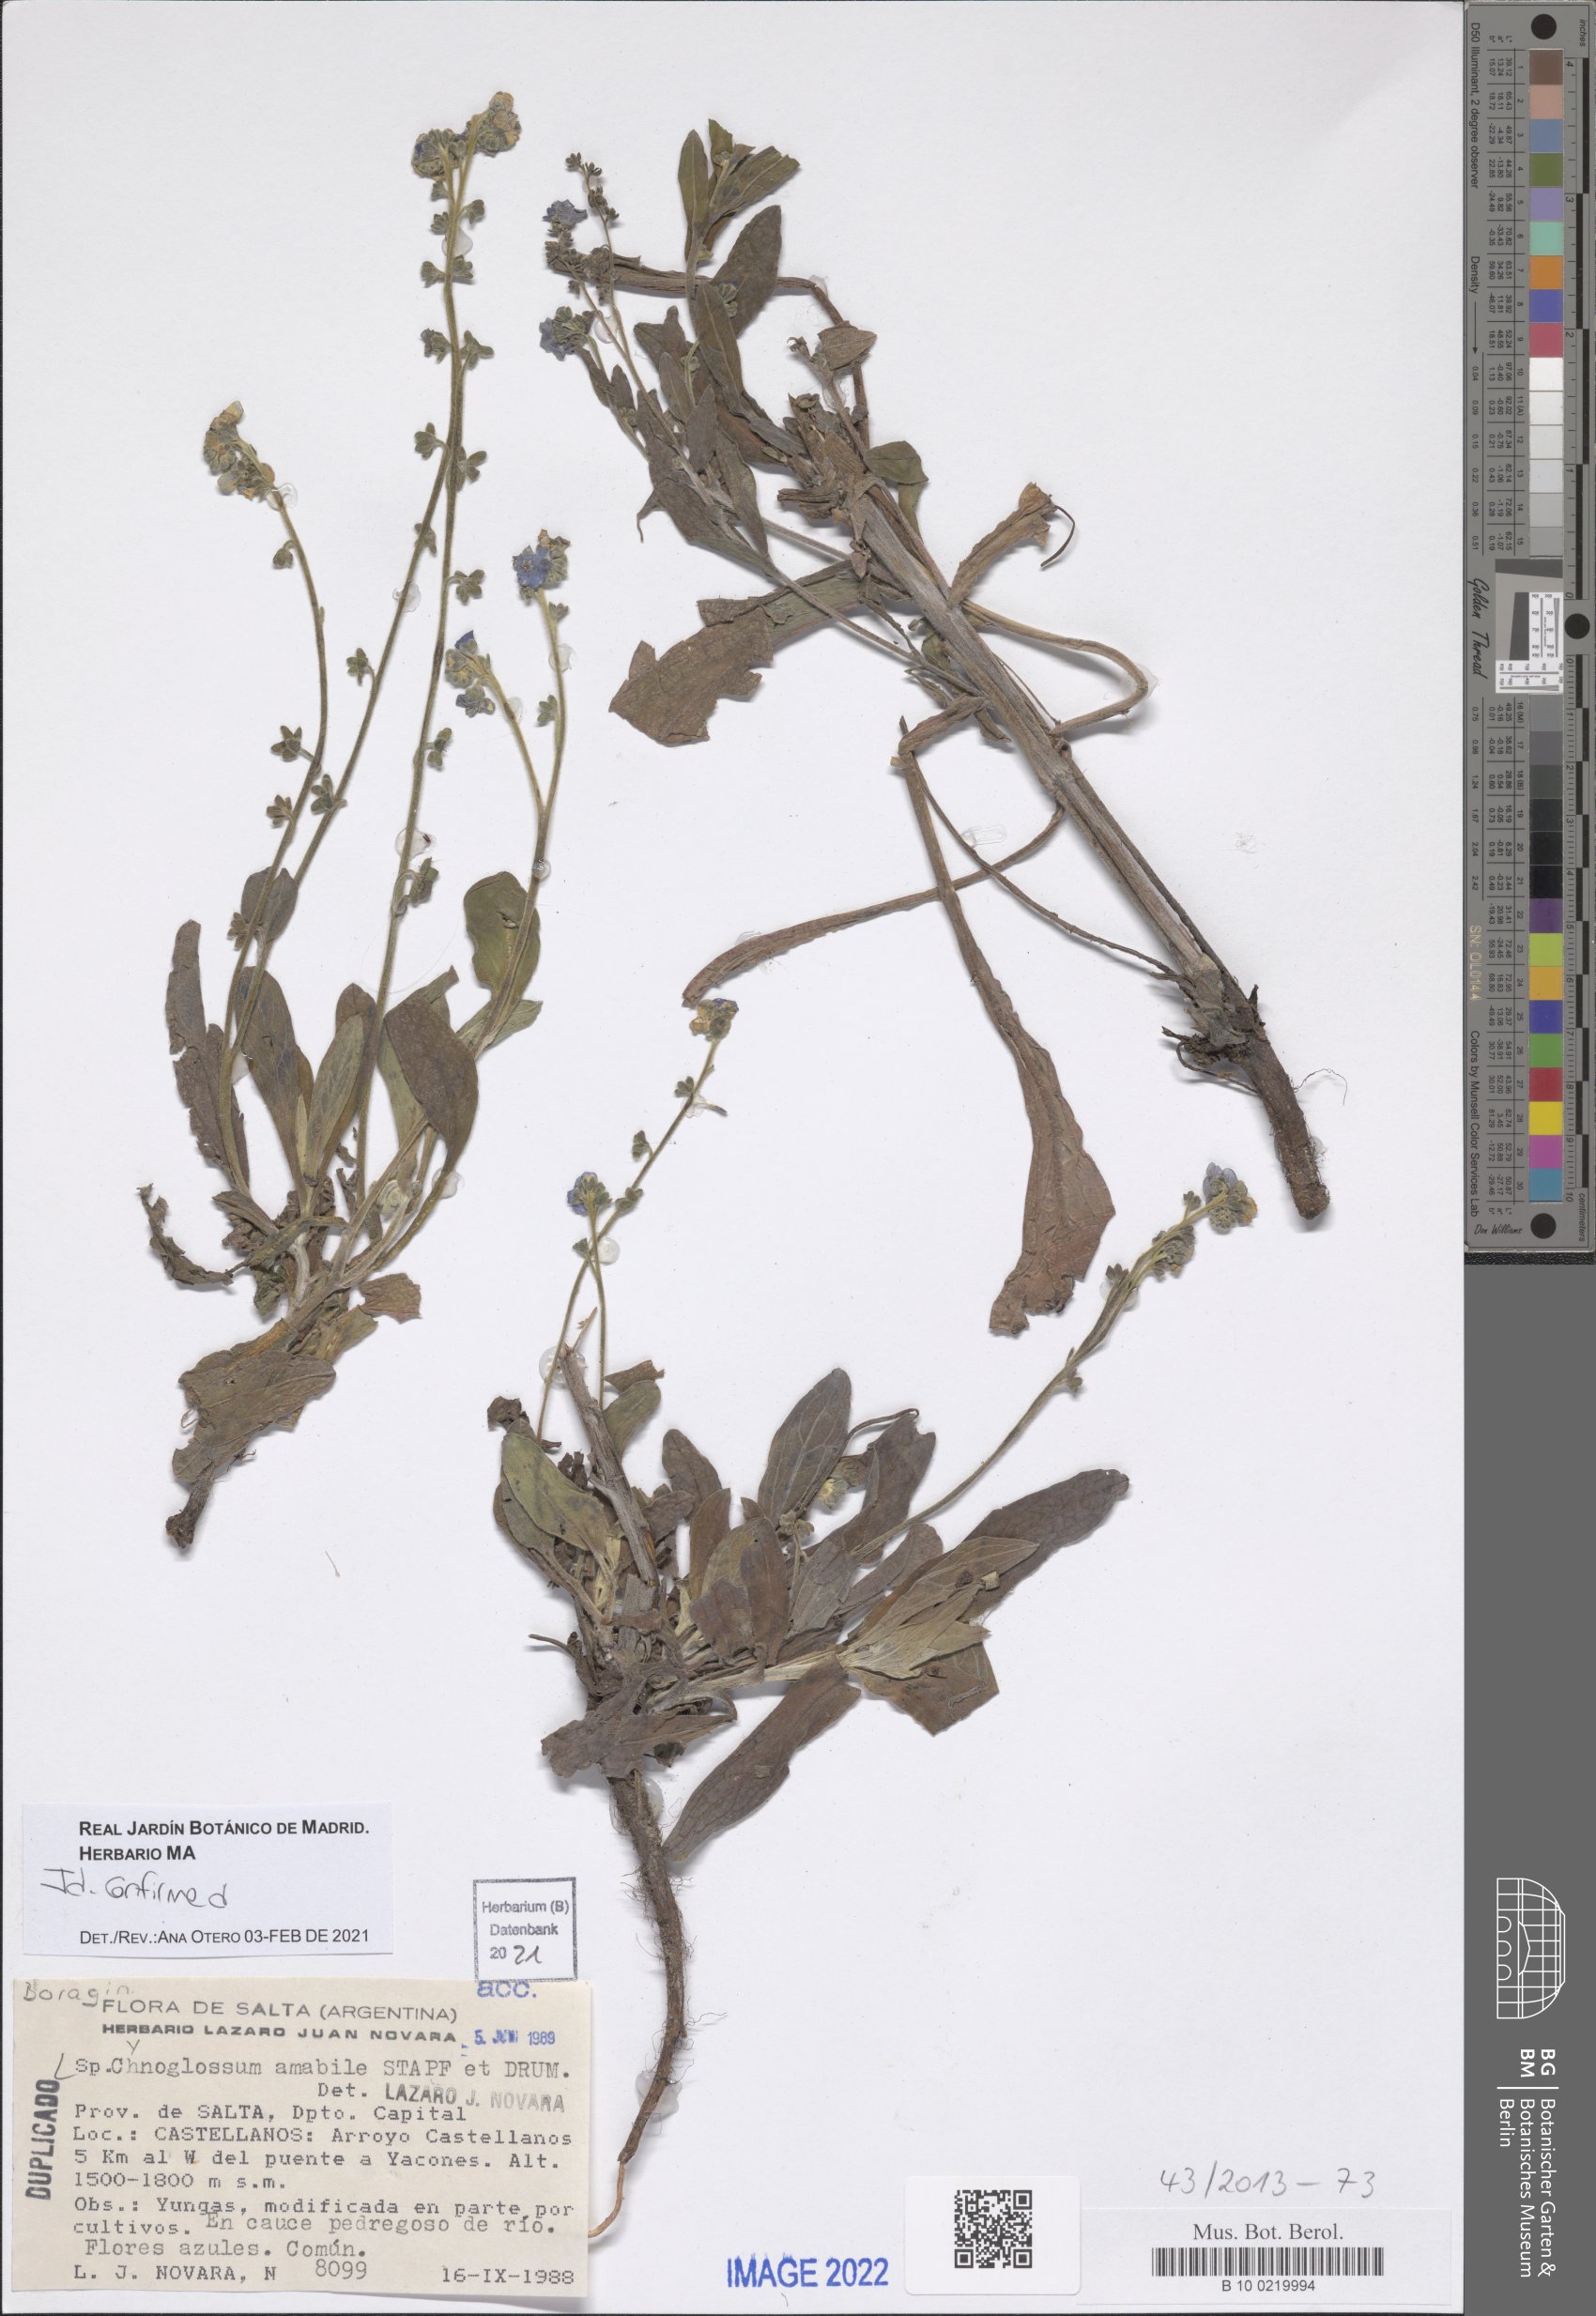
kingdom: Plantae
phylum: Tracheophyta
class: Magnoliopsida
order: Boraginales
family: Boraginaceae
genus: Cynoglossum
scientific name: Cynoglossum amabile
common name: Chinese hound's tongue
